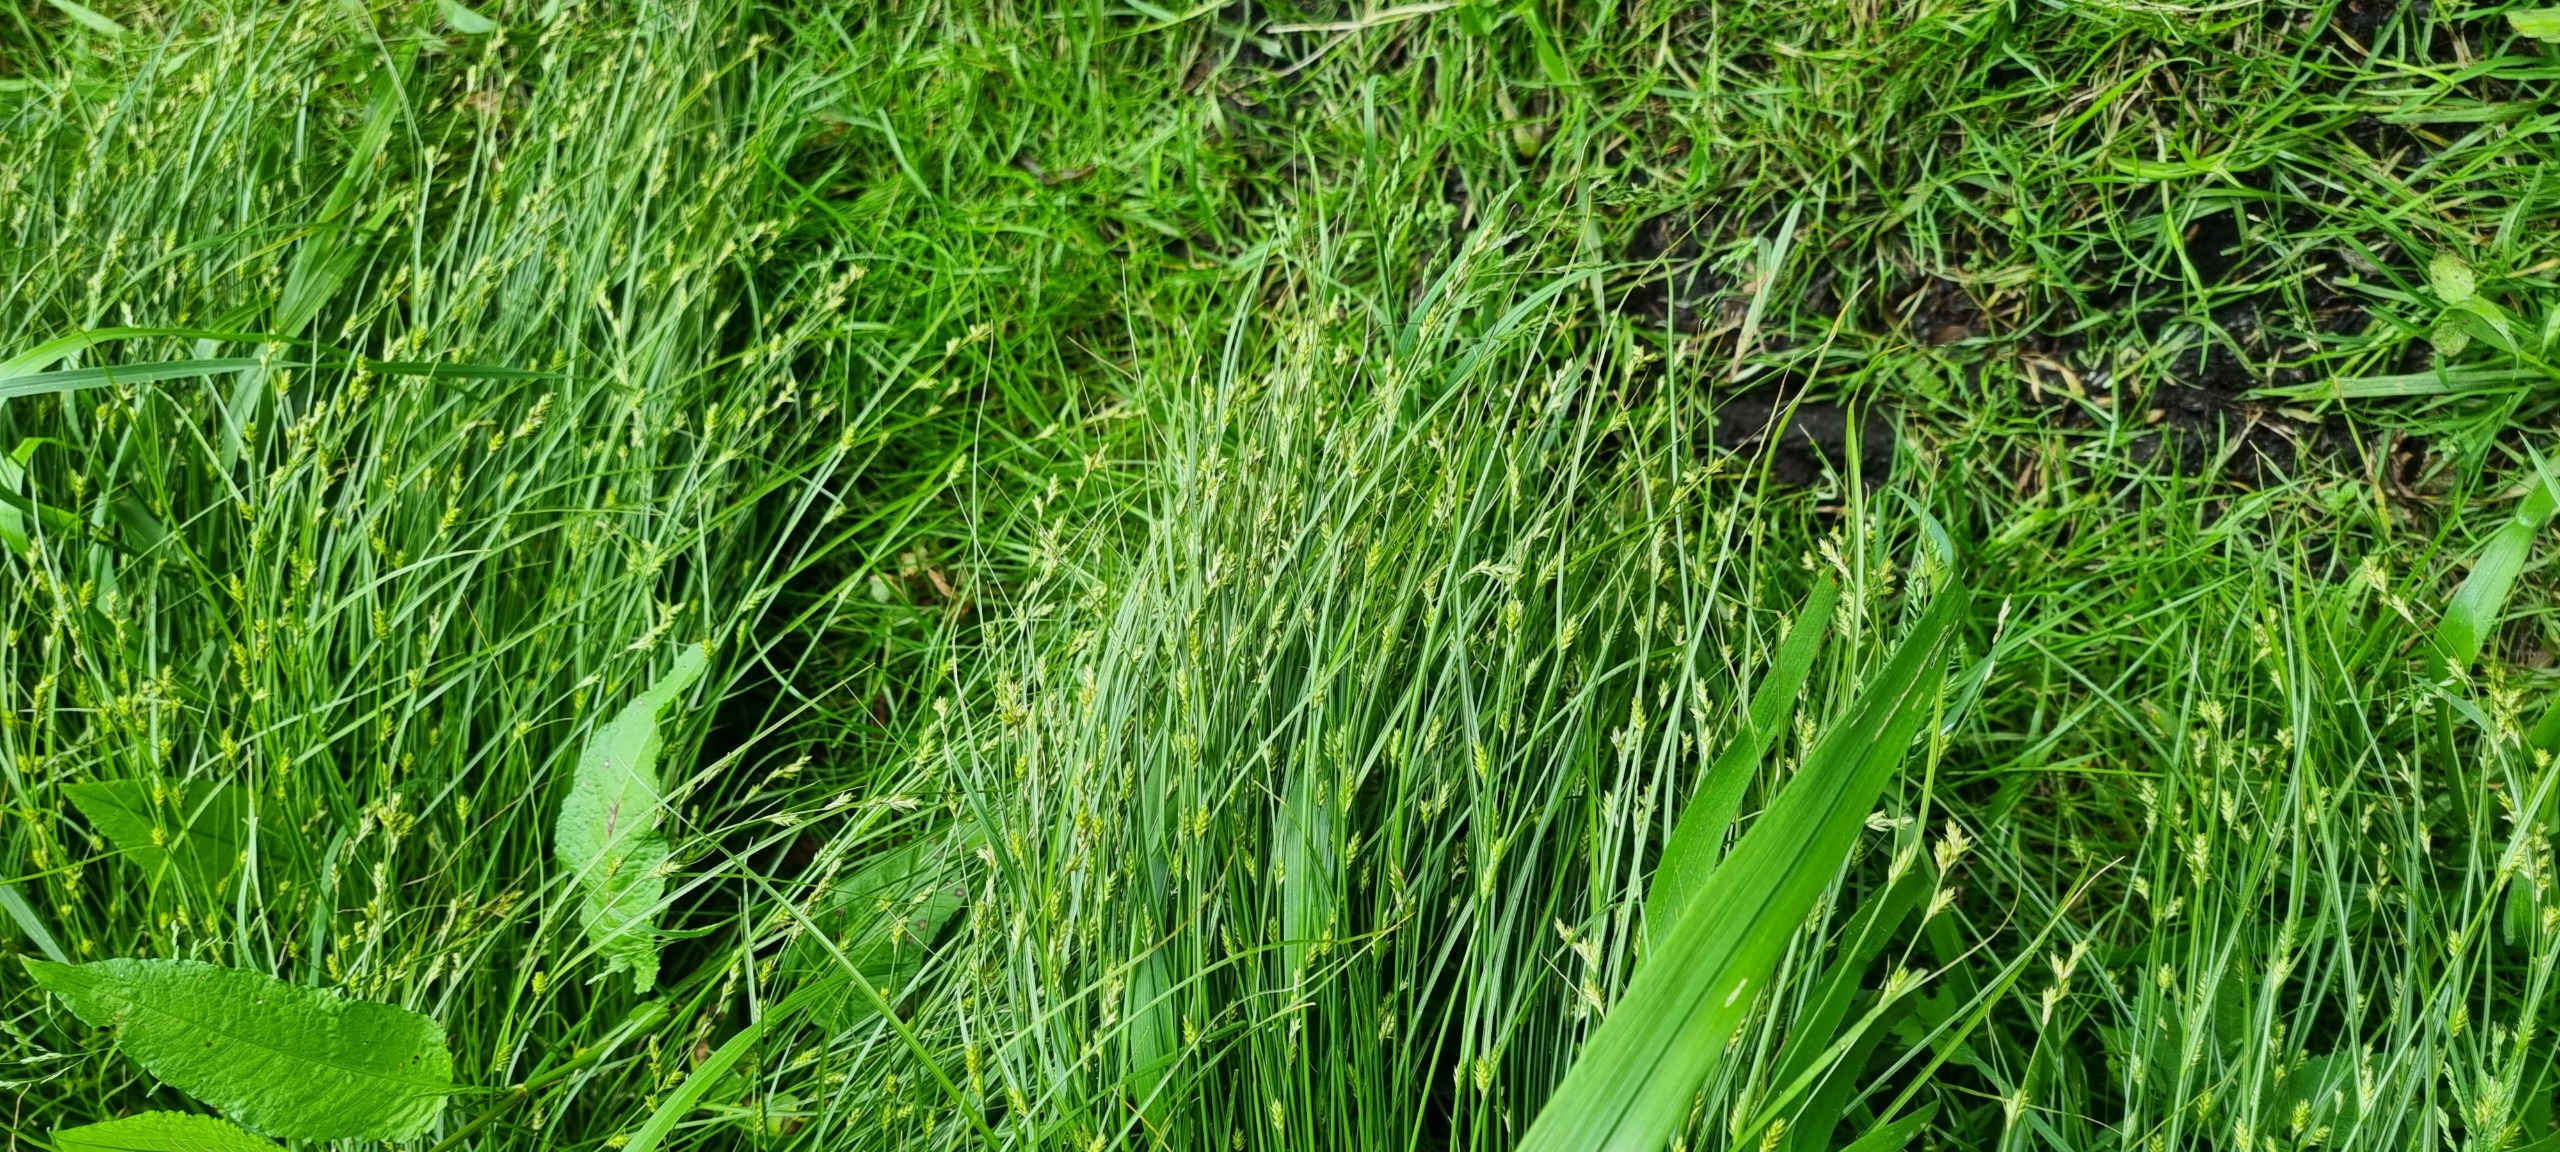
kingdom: Plantae
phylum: Tracheophyta
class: Liliopsida
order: Poales
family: Cyperaceae
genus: Carex
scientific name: Carex remota
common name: Akselblomstret star
